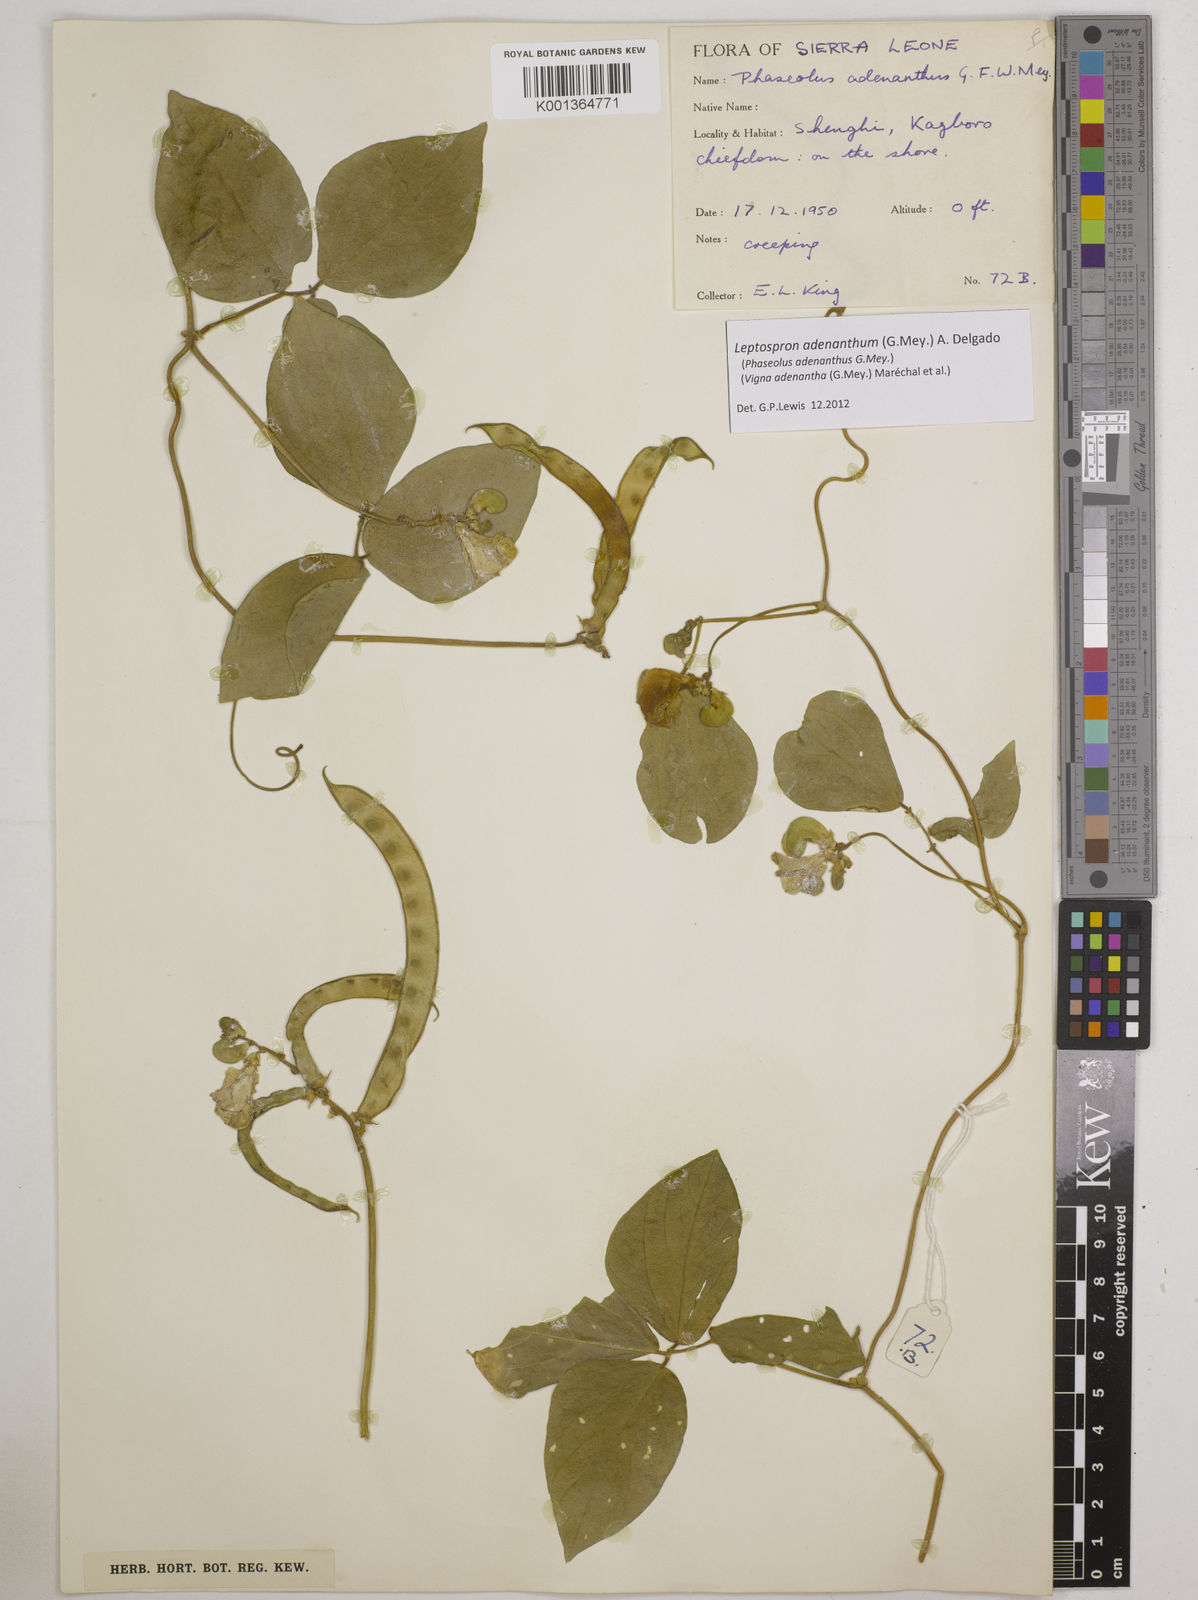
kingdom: Plantae
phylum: Tracheophyta
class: Magnoliopsida
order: Fabales
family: Fabaceae
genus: Leptospron
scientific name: Leptospron adenanthum
